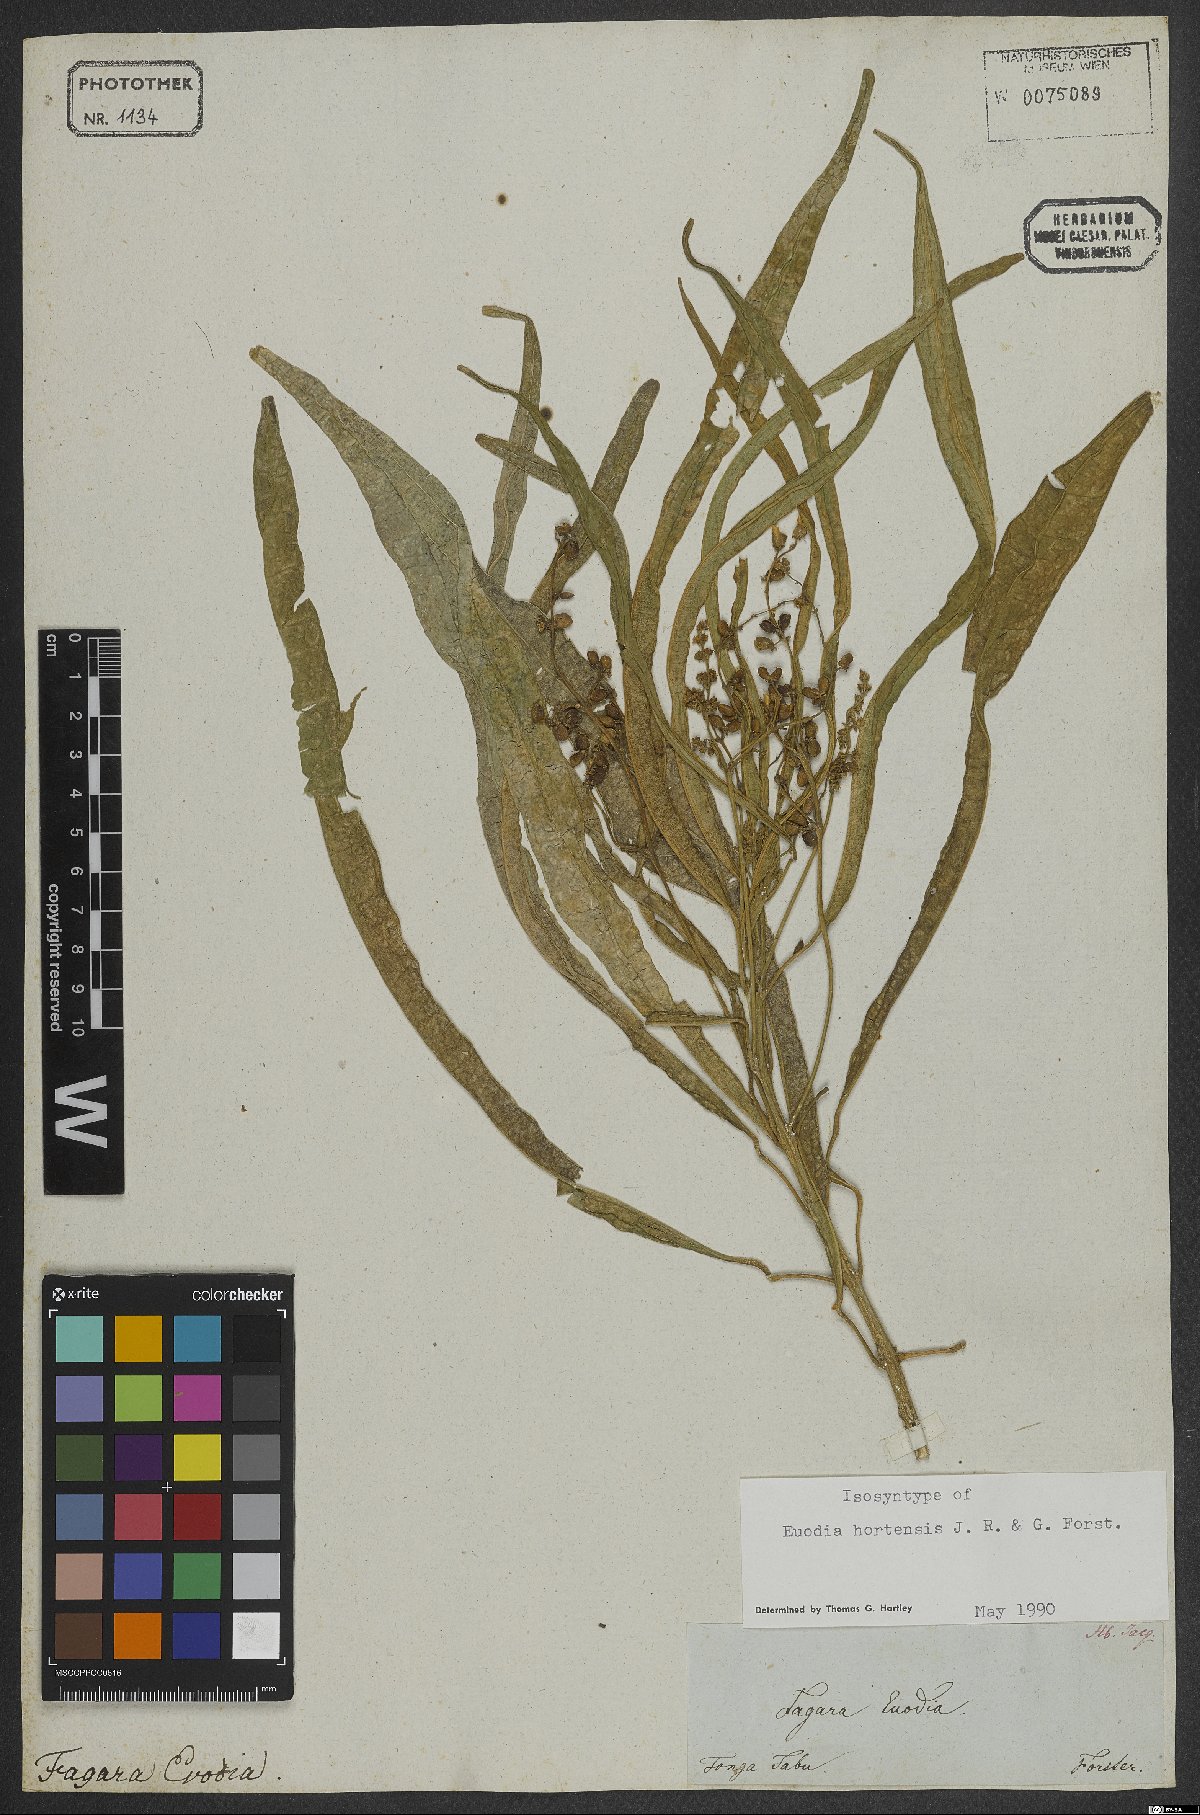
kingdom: Plantae
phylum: Tracheophyta
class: Magnoliopsida
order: Sapindales
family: Rutaceae
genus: Euodia
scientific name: Euodia hortensis
